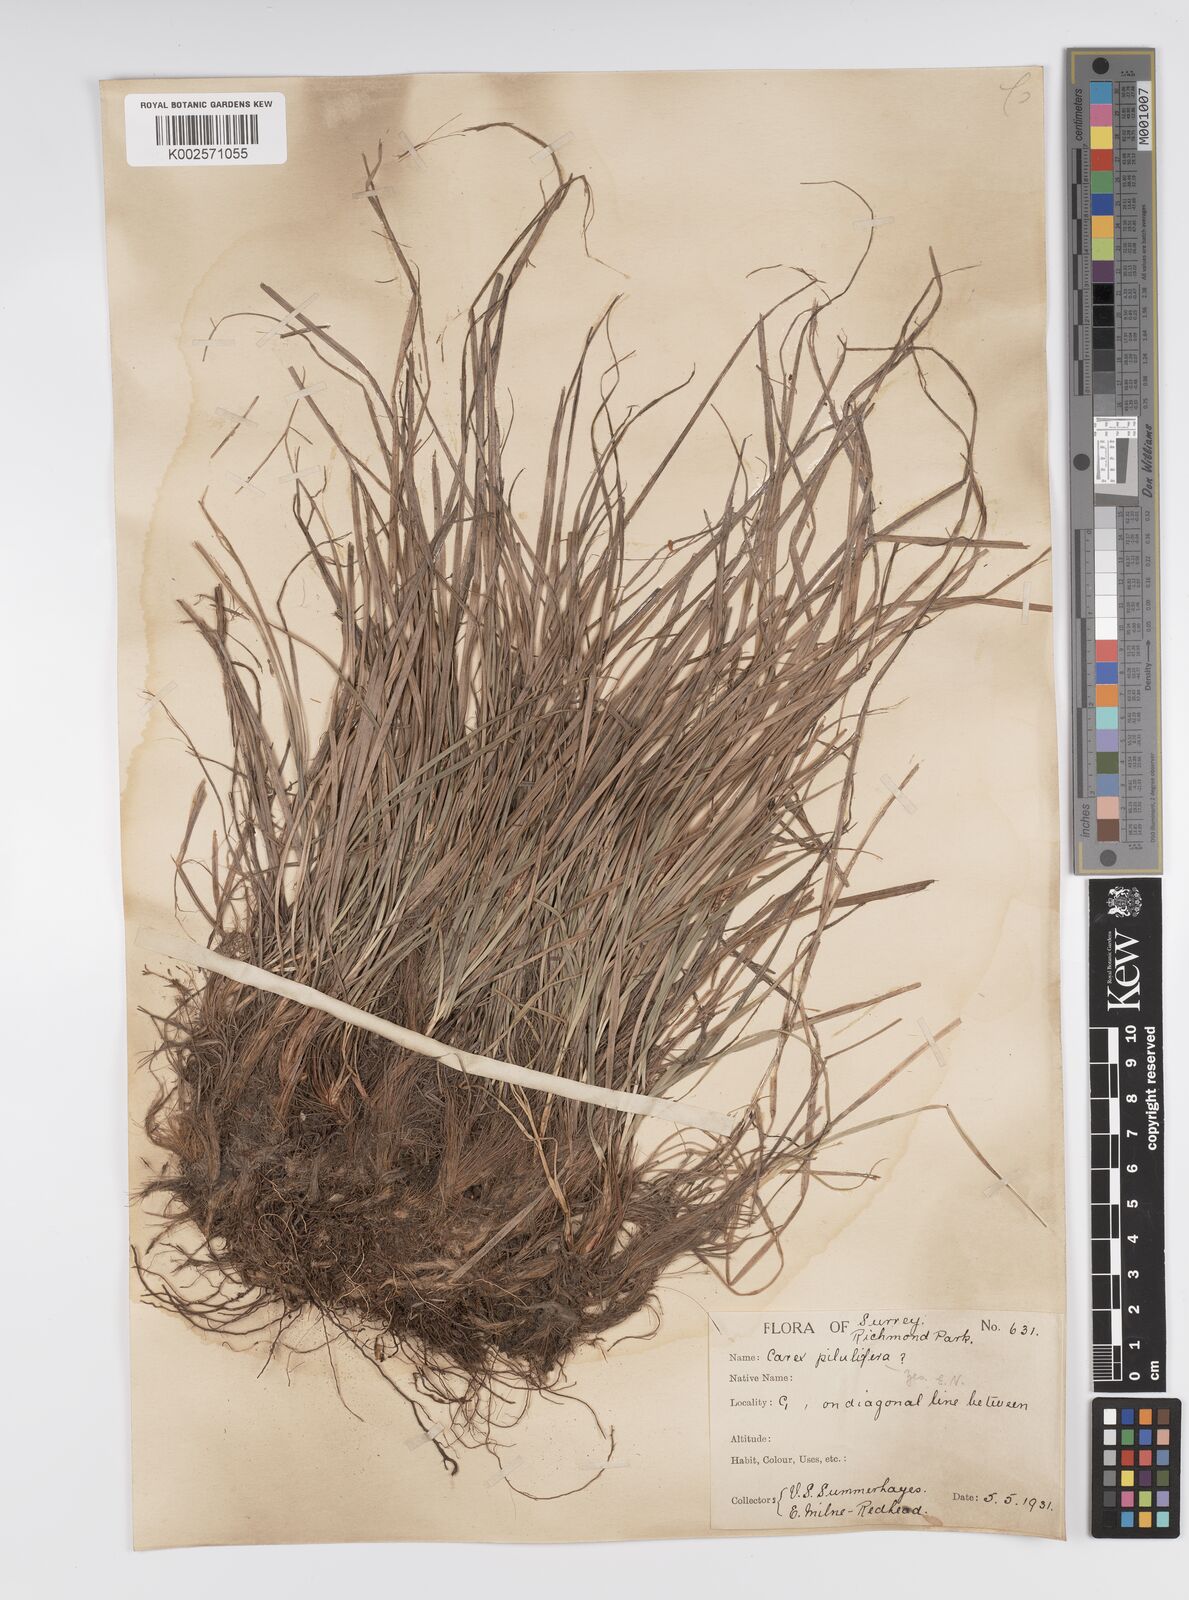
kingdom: Plantae
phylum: Tracheophyta
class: Liliopsida
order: Poales
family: Cyperaceae
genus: Carex
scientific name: Carex pilulifera
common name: Pill sedge
